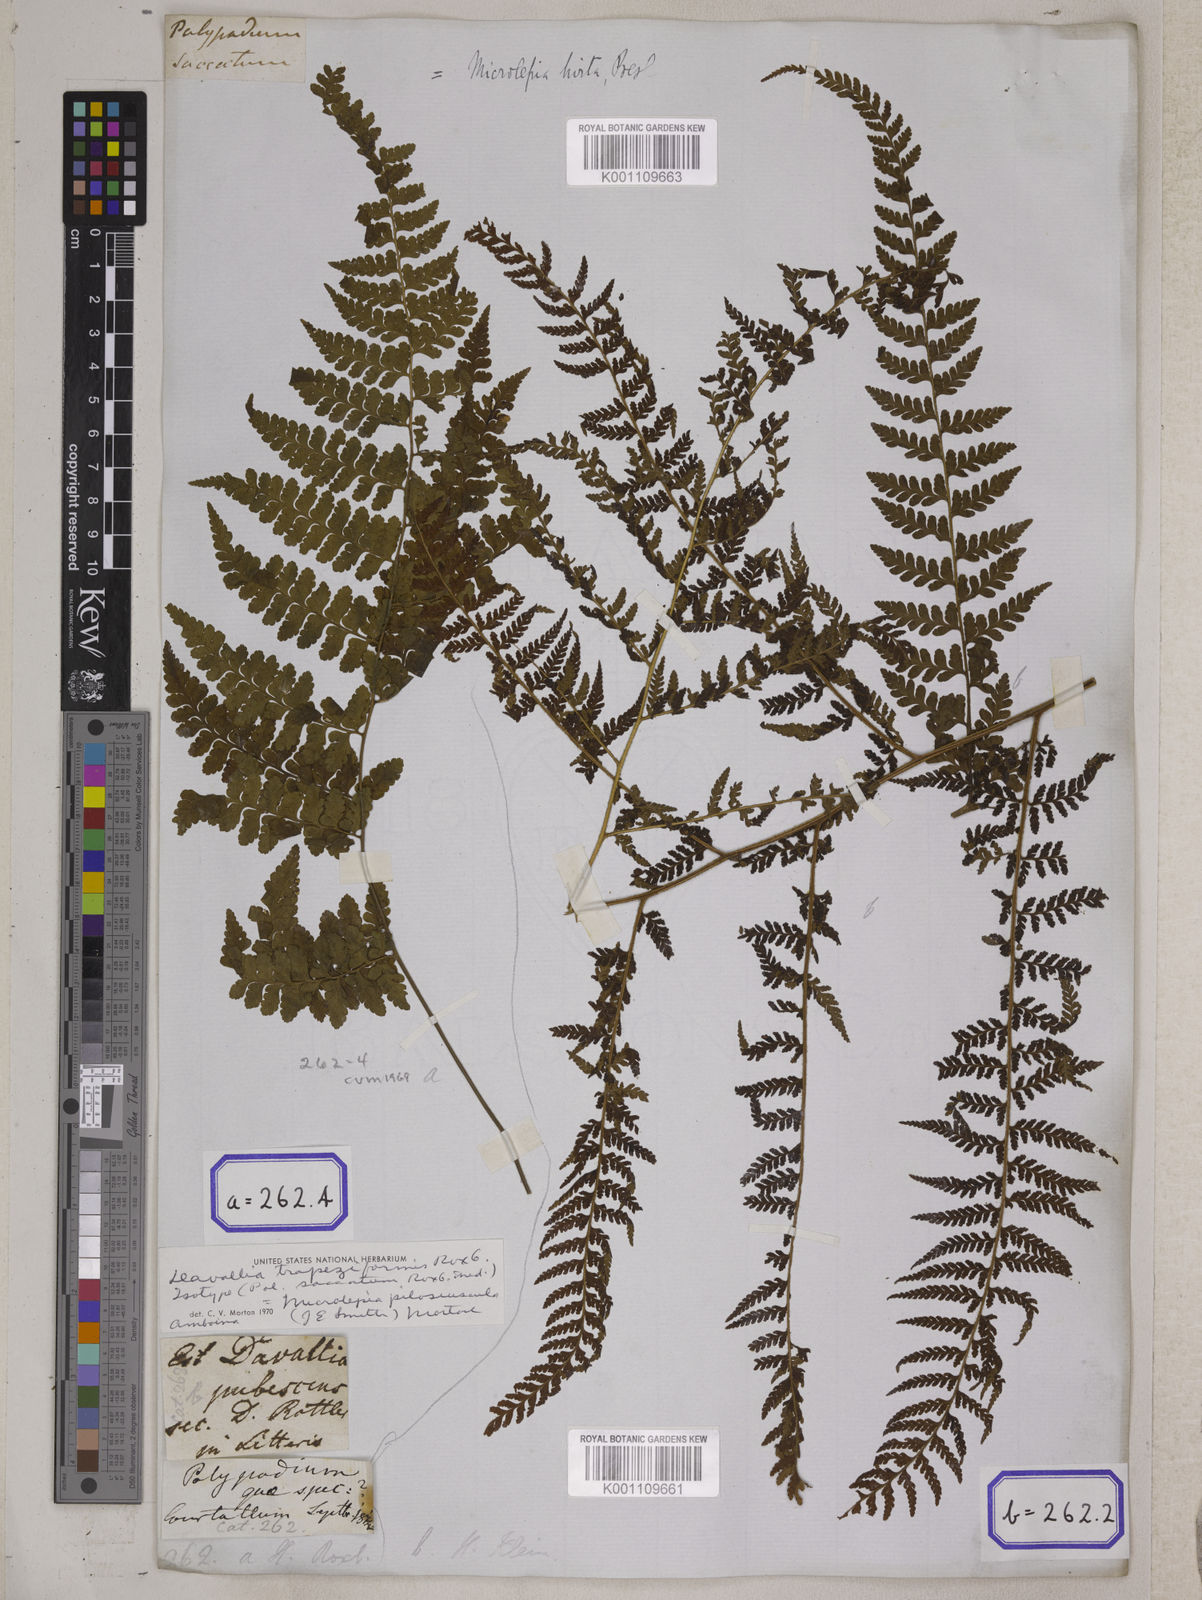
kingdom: Plantae
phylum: Tracheophyta
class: Polypodiopsida
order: Polypodiales
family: Dennstaedtiaceae
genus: Microlepia
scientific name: Microlepia marginata
